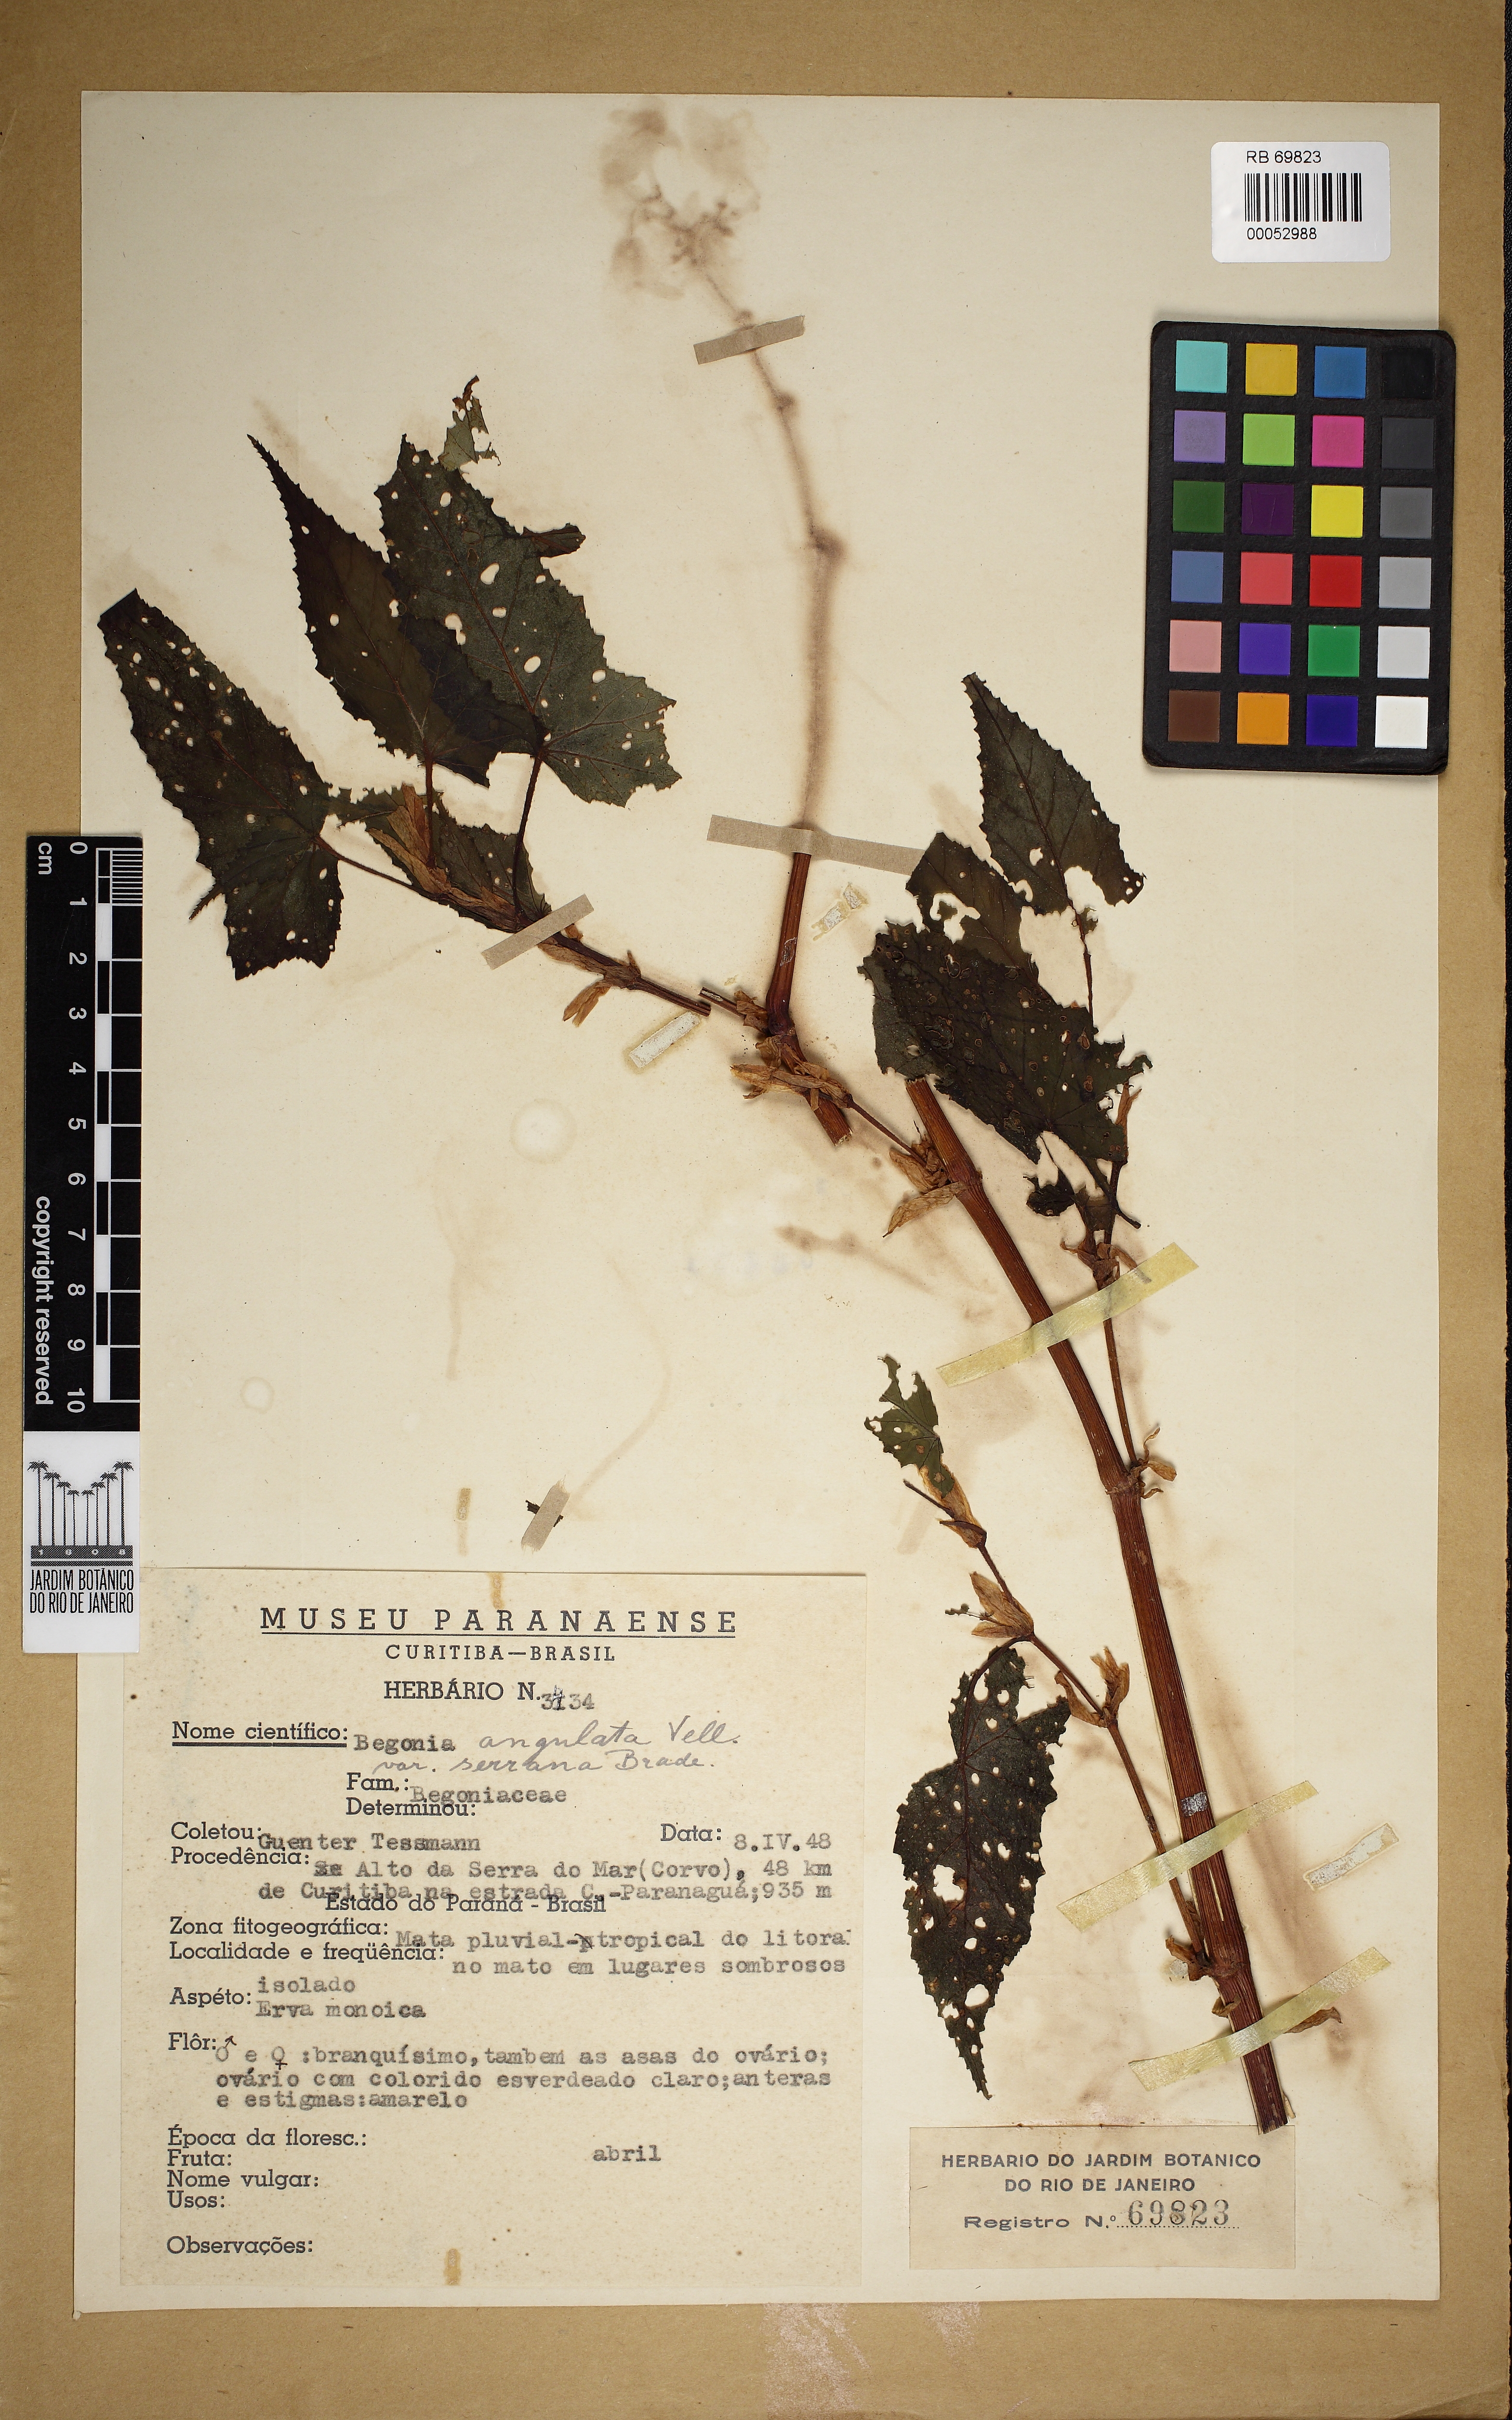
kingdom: Plantae
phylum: Tracheophyta
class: Magnoliopsida
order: Cucurbitales
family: Begoniaceae
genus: Begonia
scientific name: Begonia angulata
